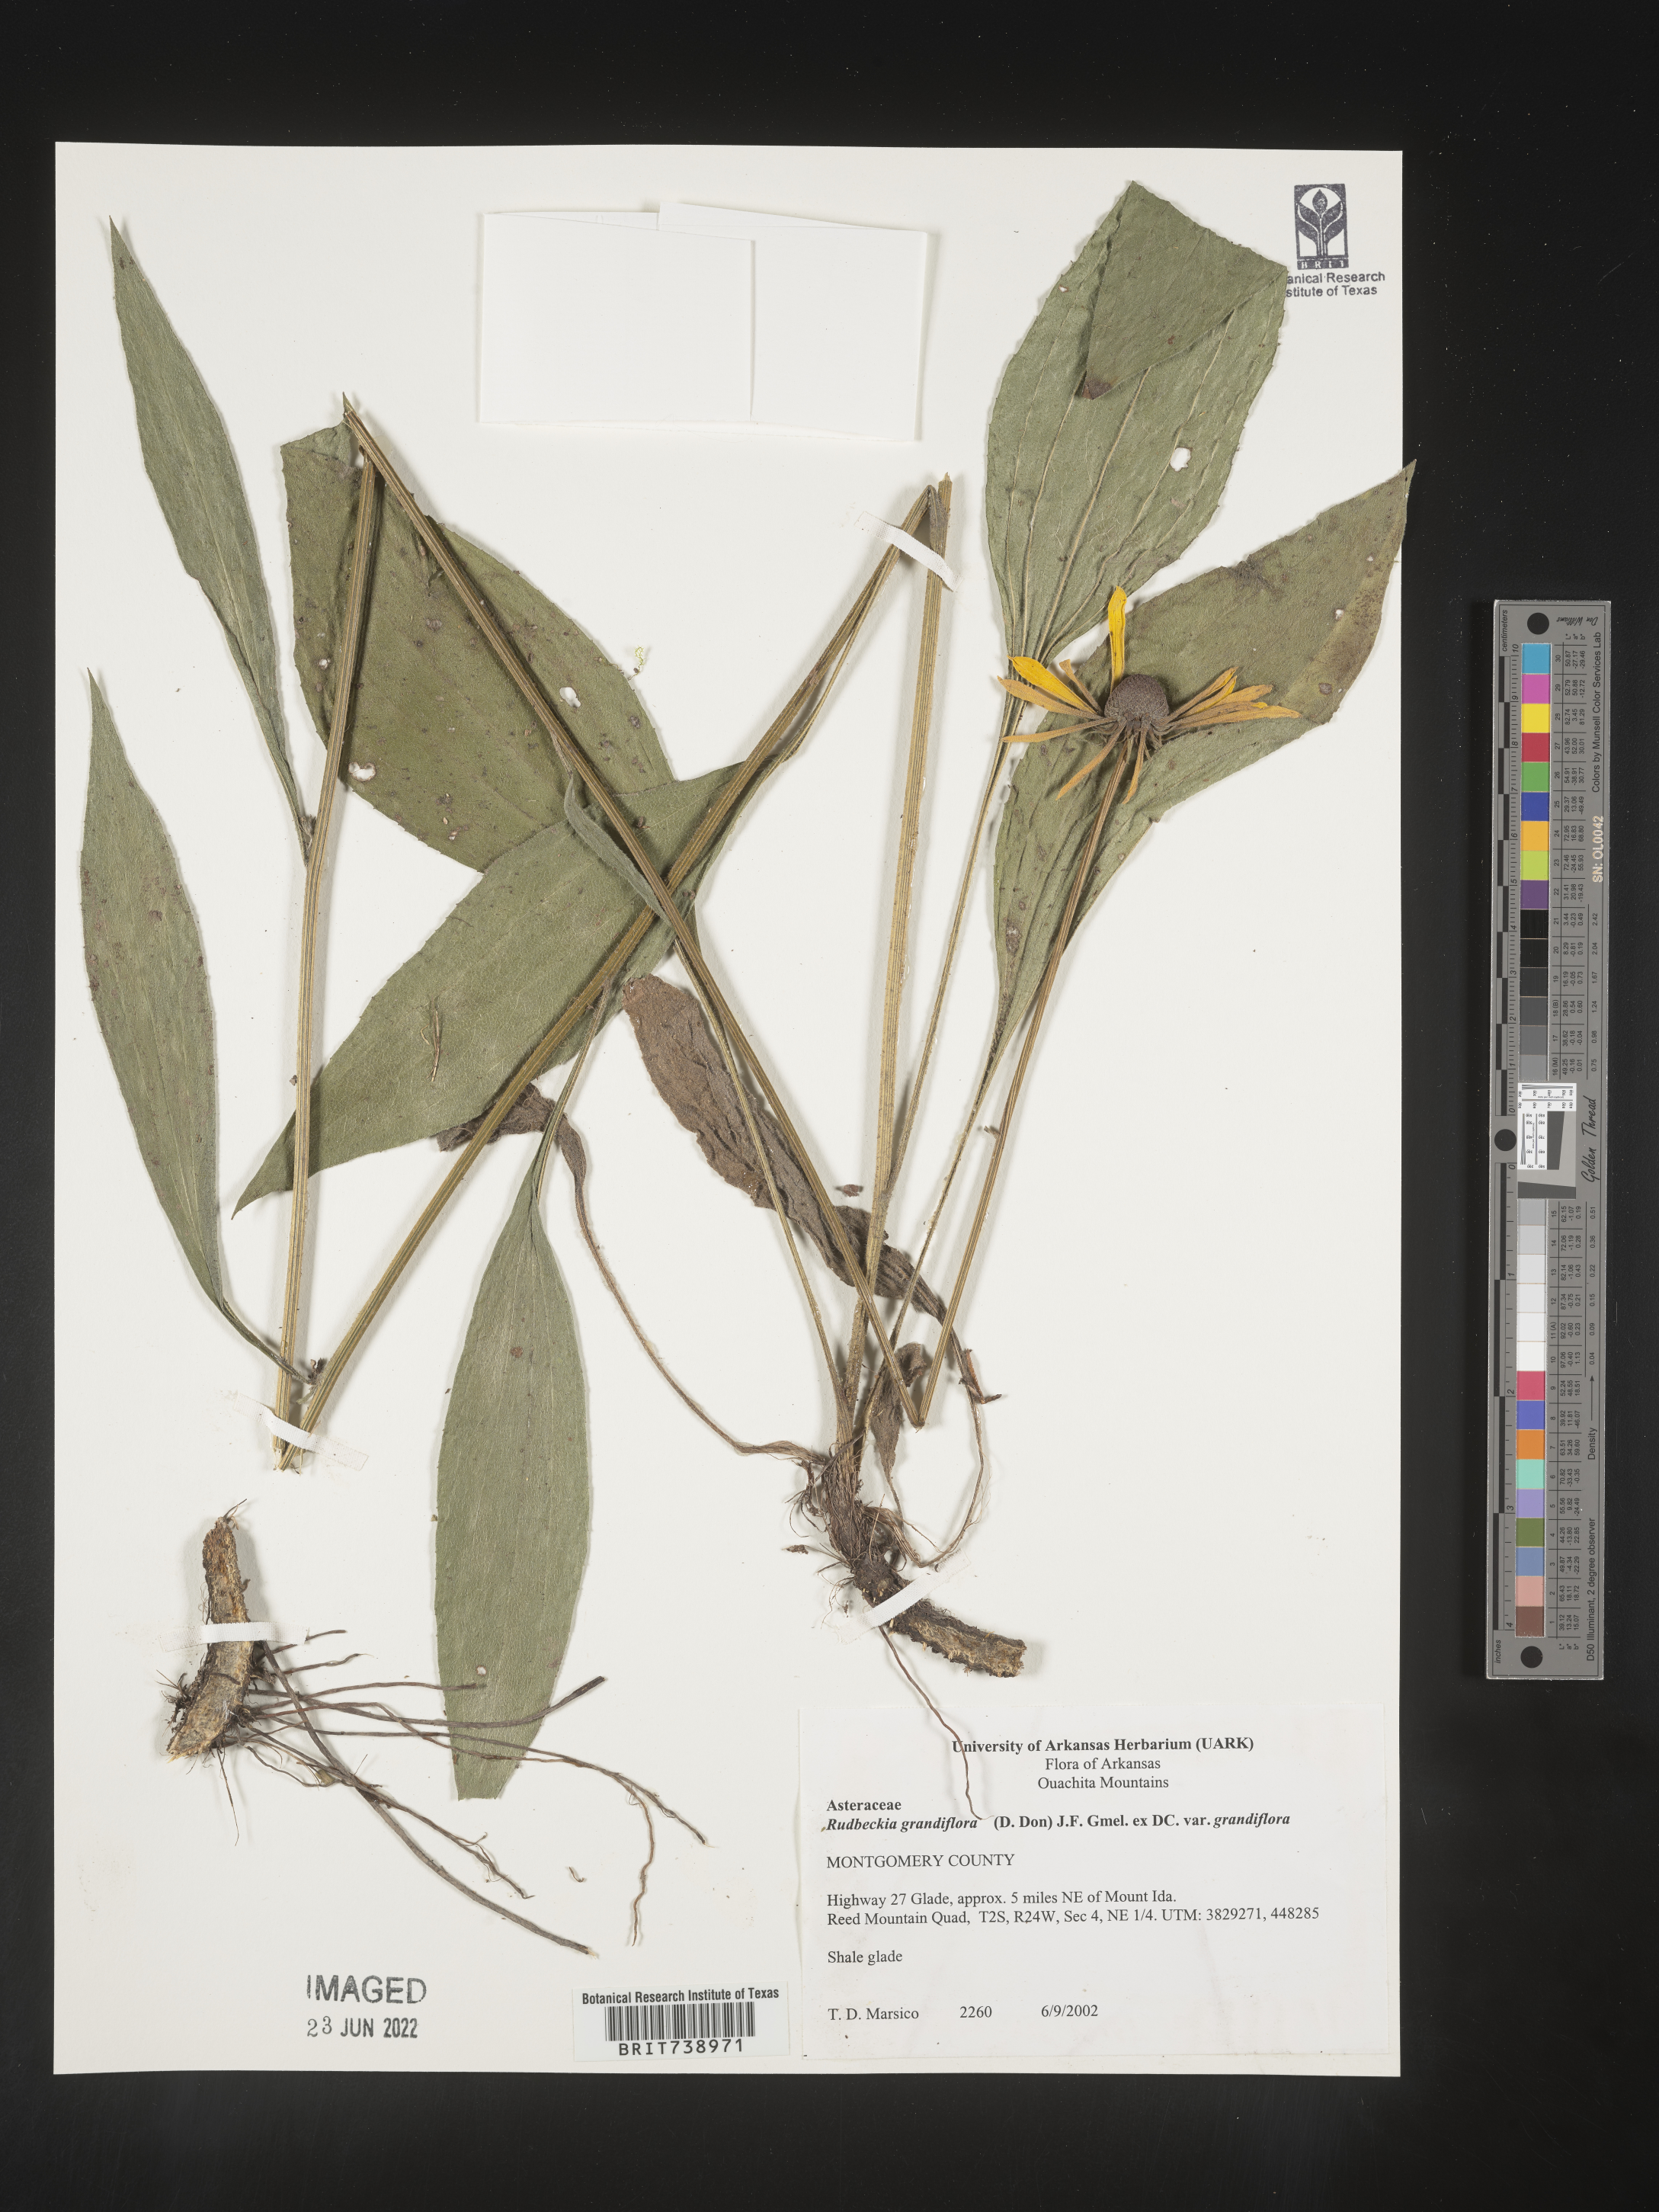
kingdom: Plantae
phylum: Tracheophyta
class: Magnoliopsida
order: Asterales
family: Asteraceae
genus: Rudbeckia
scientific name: Rudbeckia grandiflora
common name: Large-flowered coneflower
